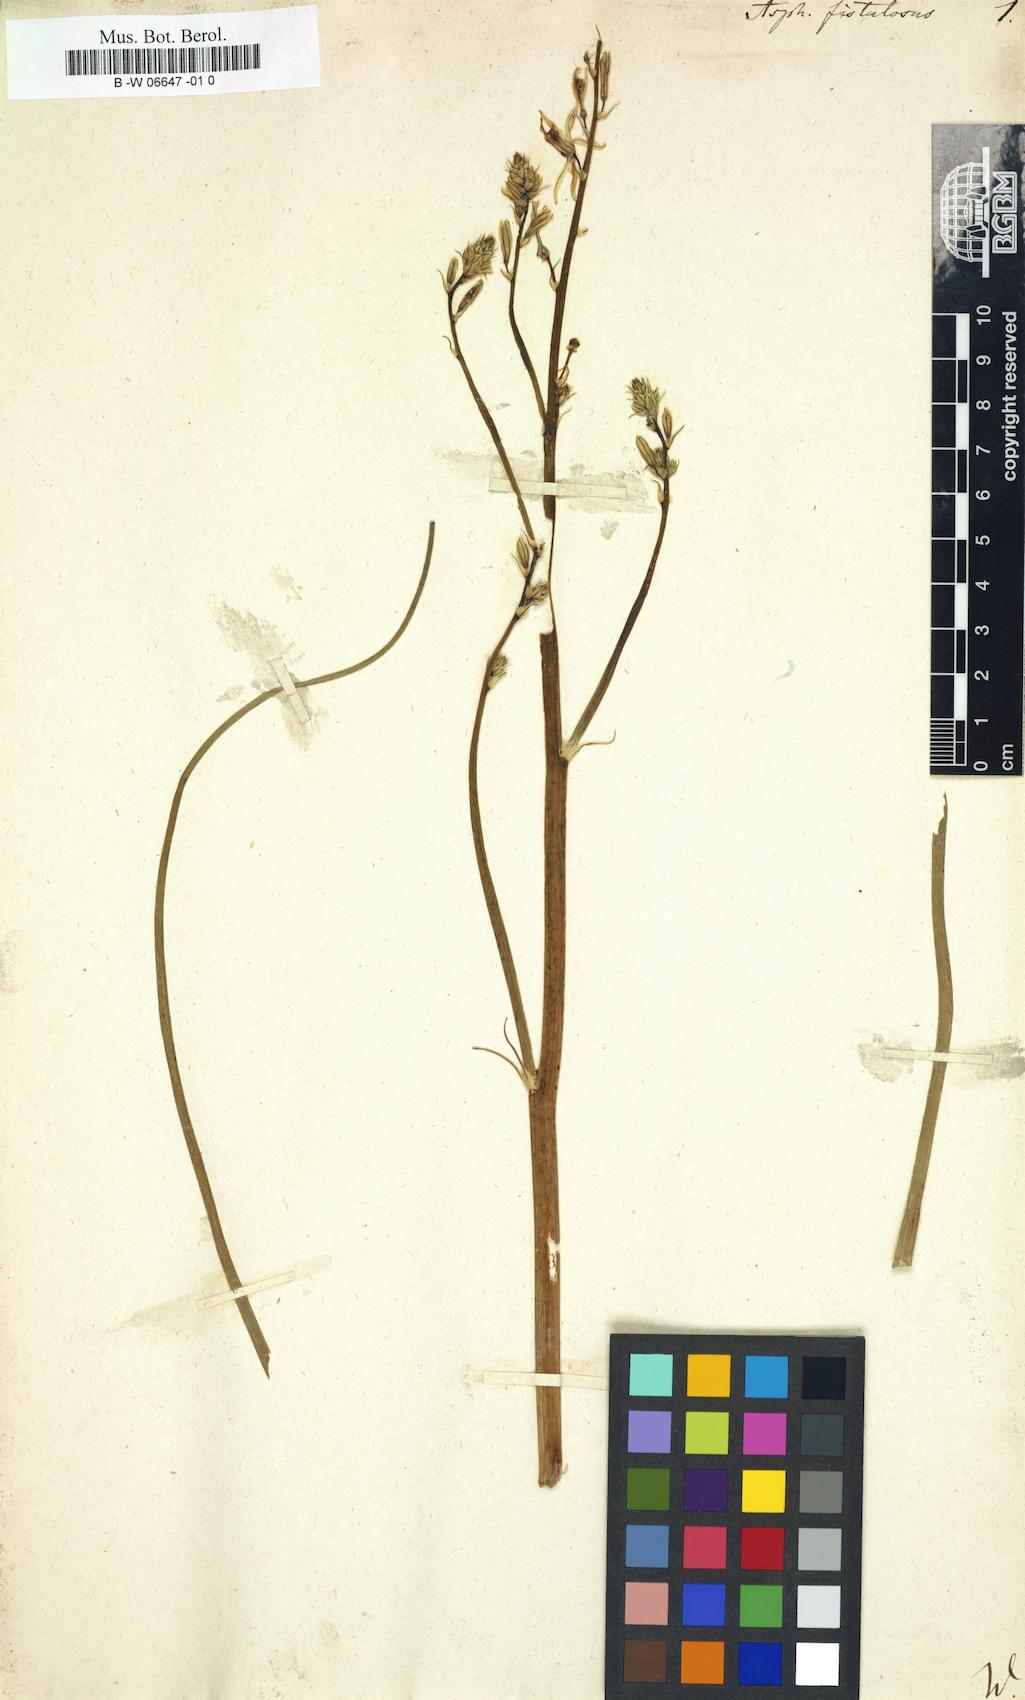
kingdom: Plantae
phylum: Tracheophyta
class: Liliopsida
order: Asparagales
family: Asphodelaceae
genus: Asphodelus
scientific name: Asphodelus fistulosus
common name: Onionweed
